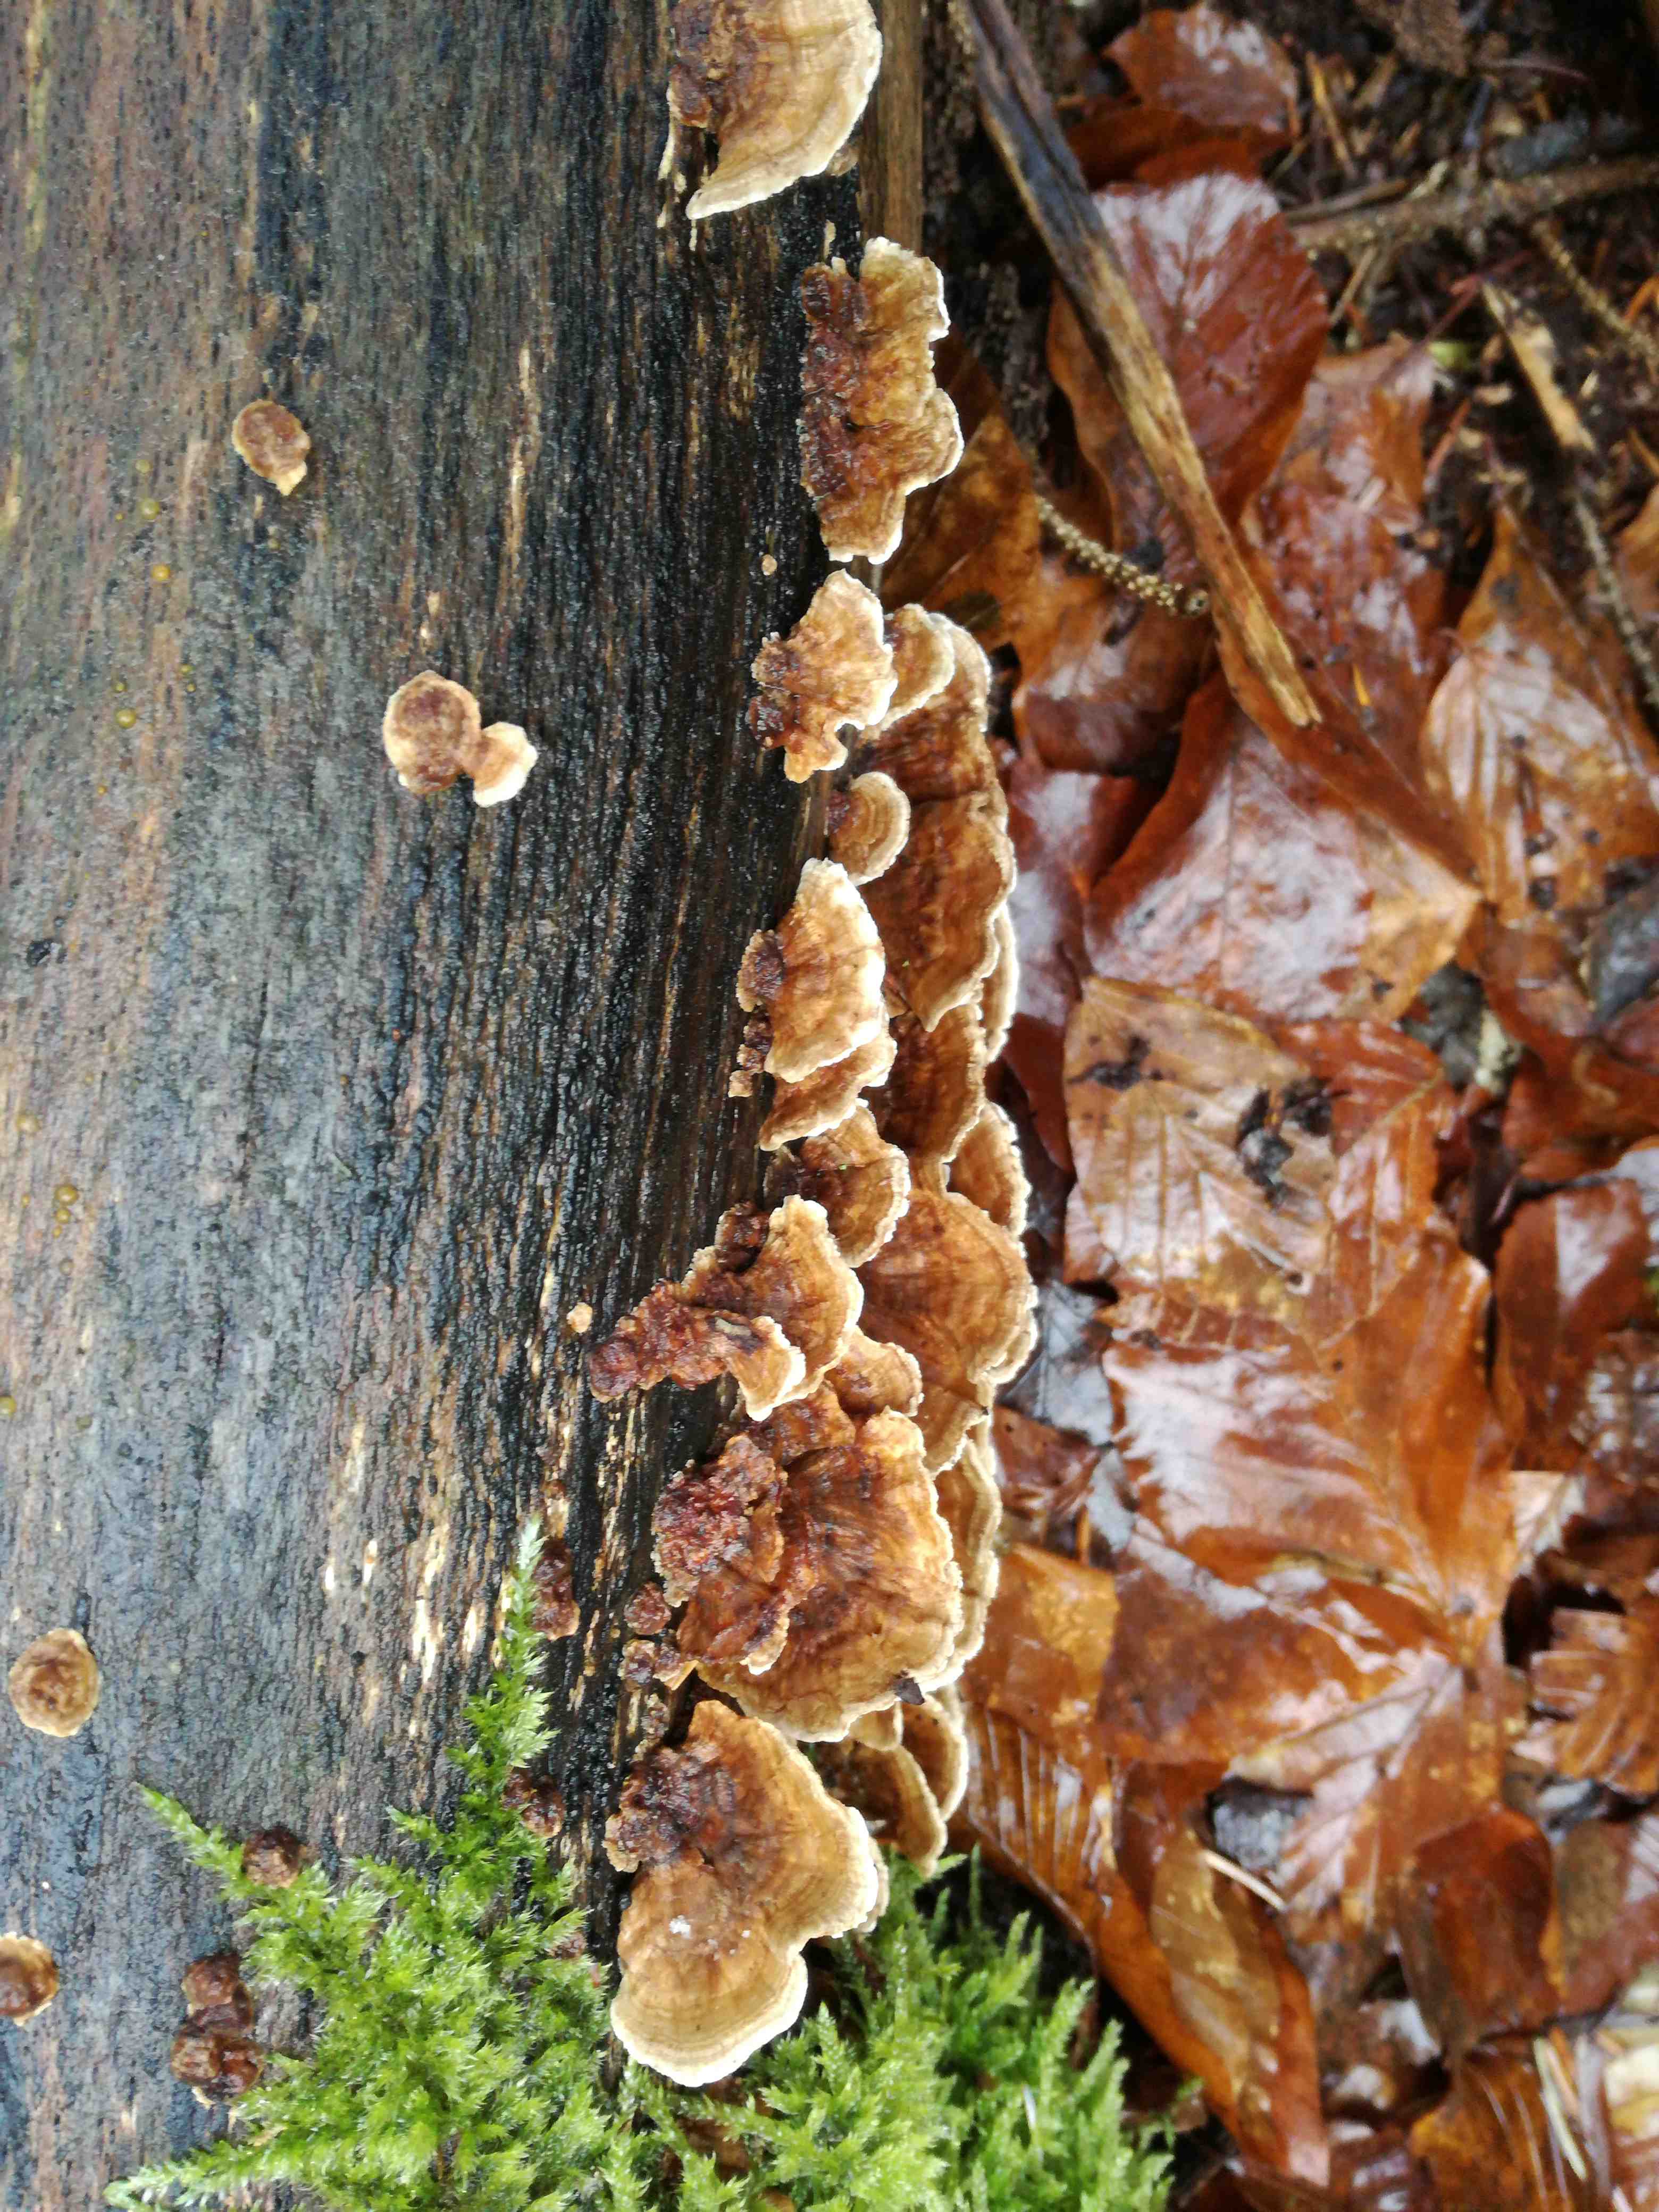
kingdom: Fungi
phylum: Basidiomycota
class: Agaricomycetes
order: Polyporales
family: Polyporaceae
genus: Trametes
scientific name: Trametes versicolor
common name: broget læderporesvamp
